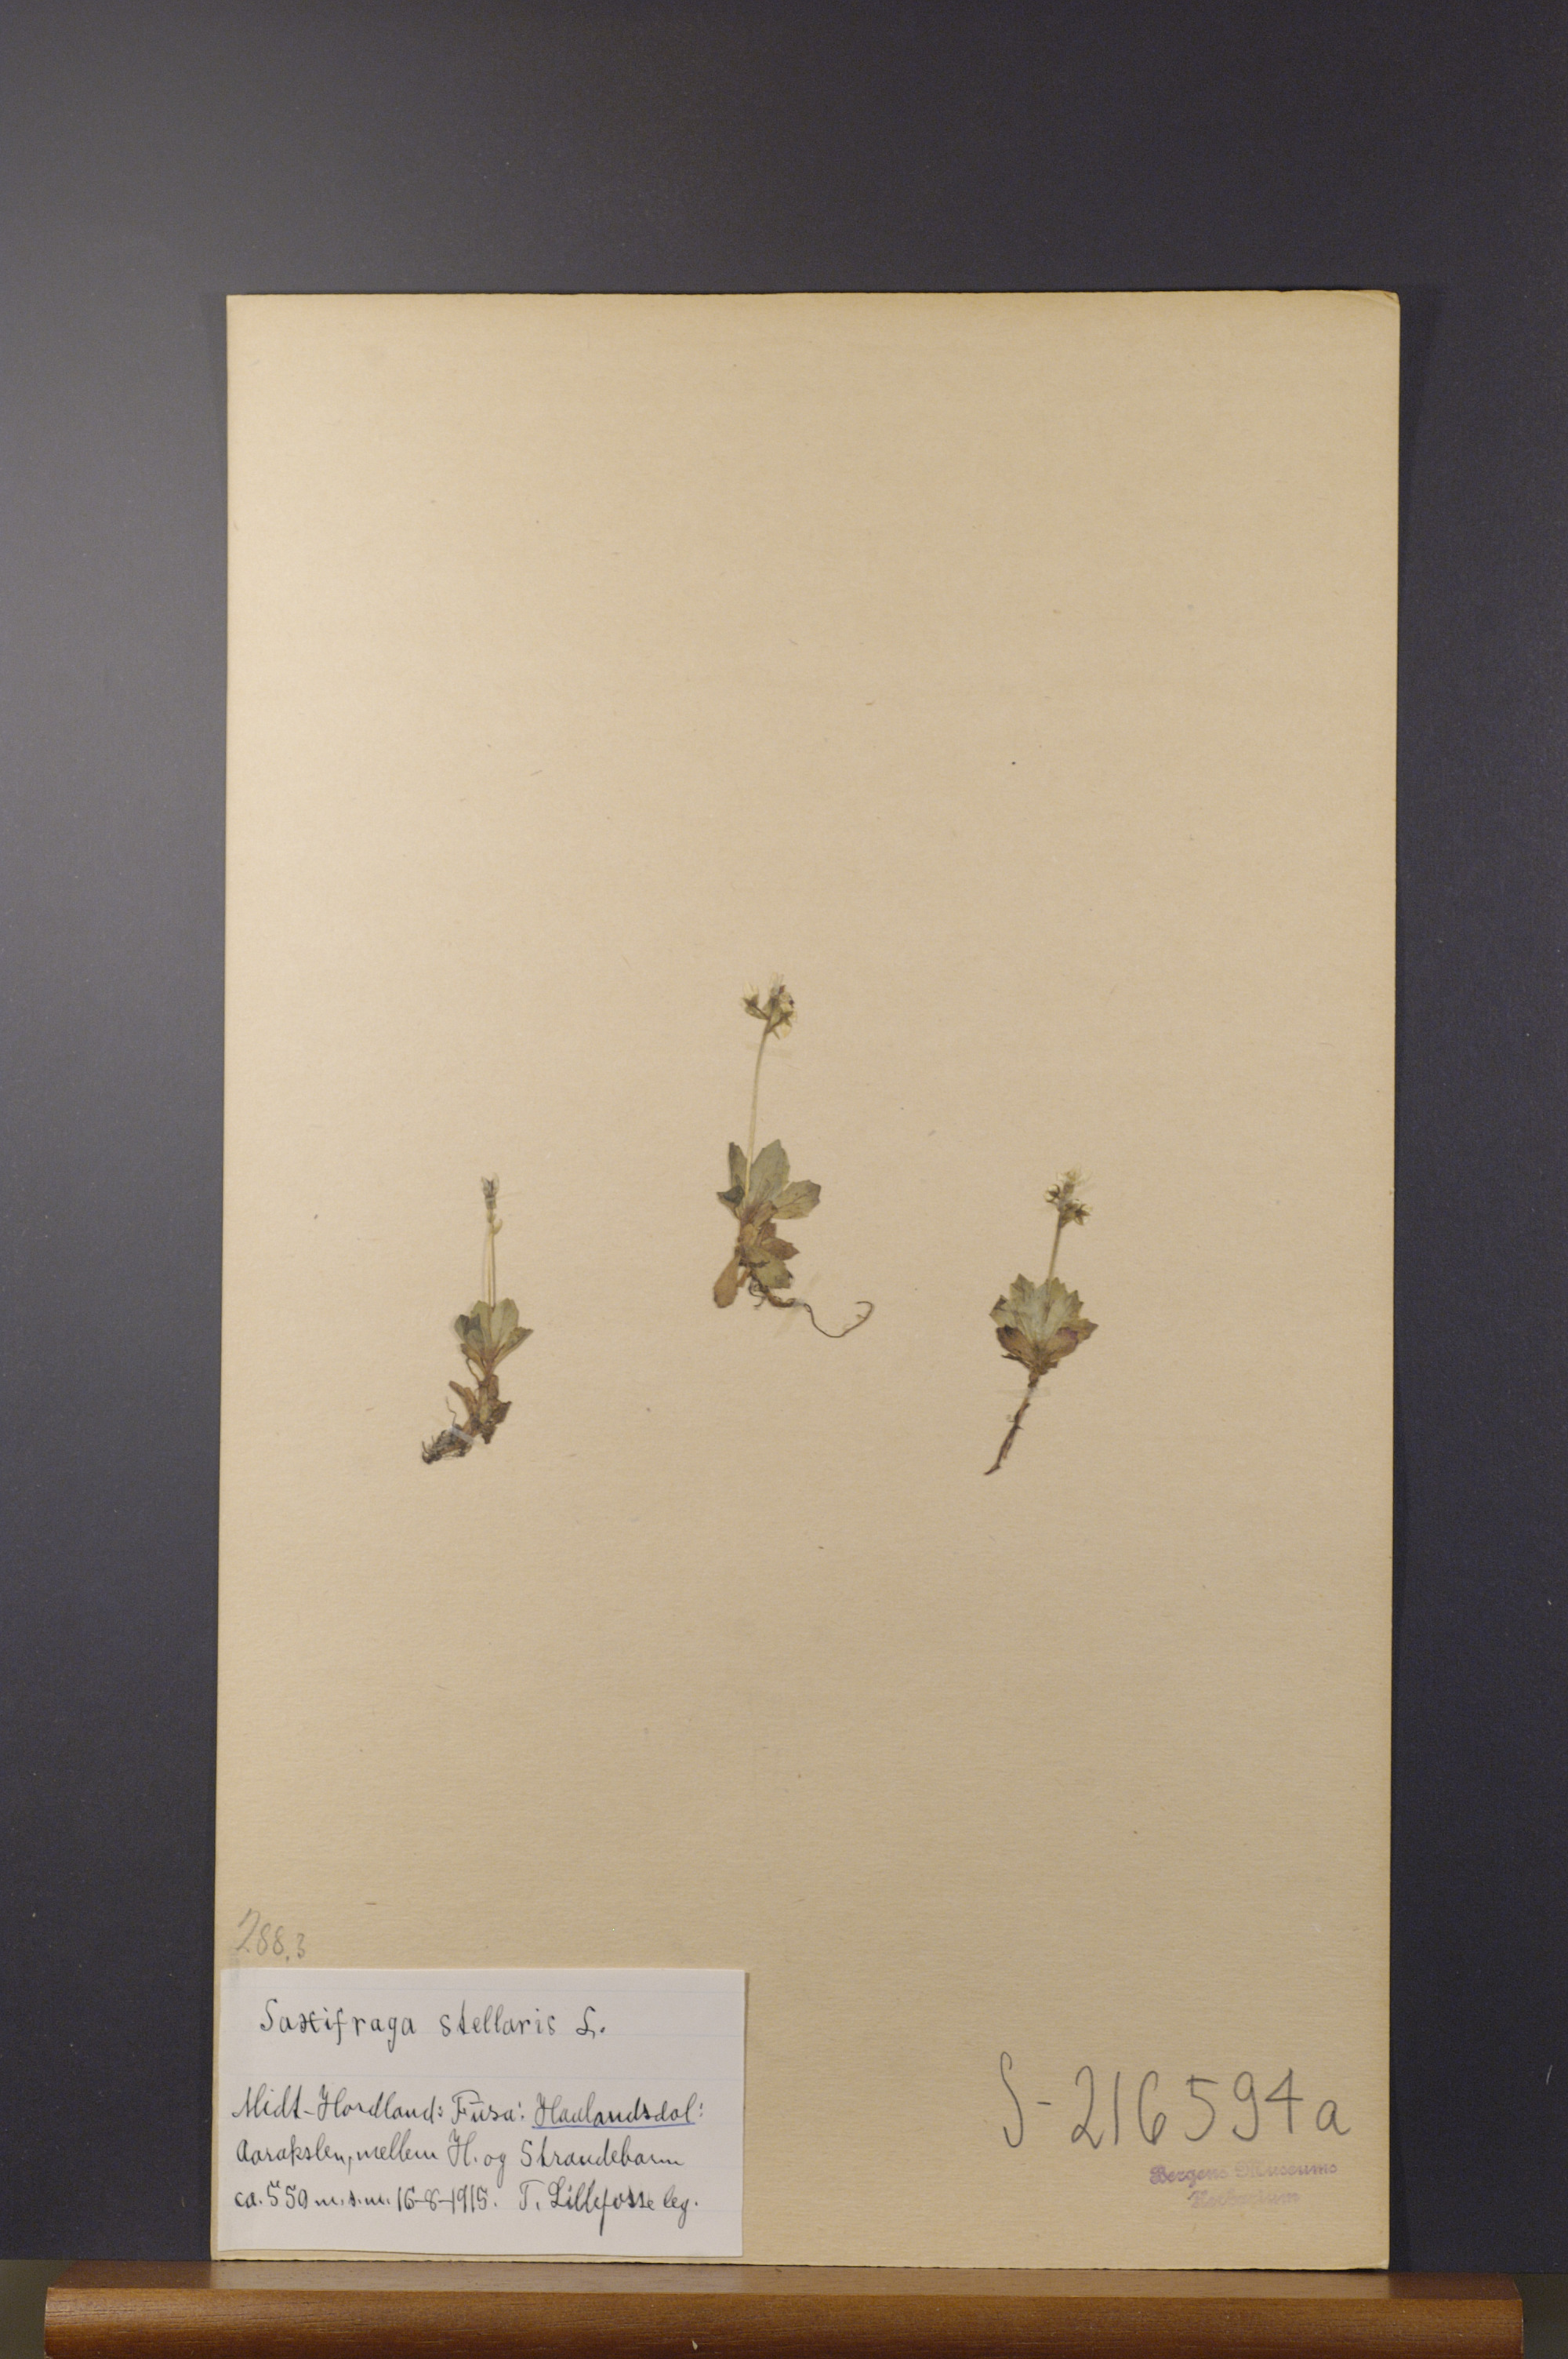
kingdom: Plantae
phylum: Tracheophyta
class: Magnoliopsida
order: Saxifragales
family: Saxifragaceae
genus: Micranthes
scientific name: Micranthes stellaris
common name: Starry saxifrage
